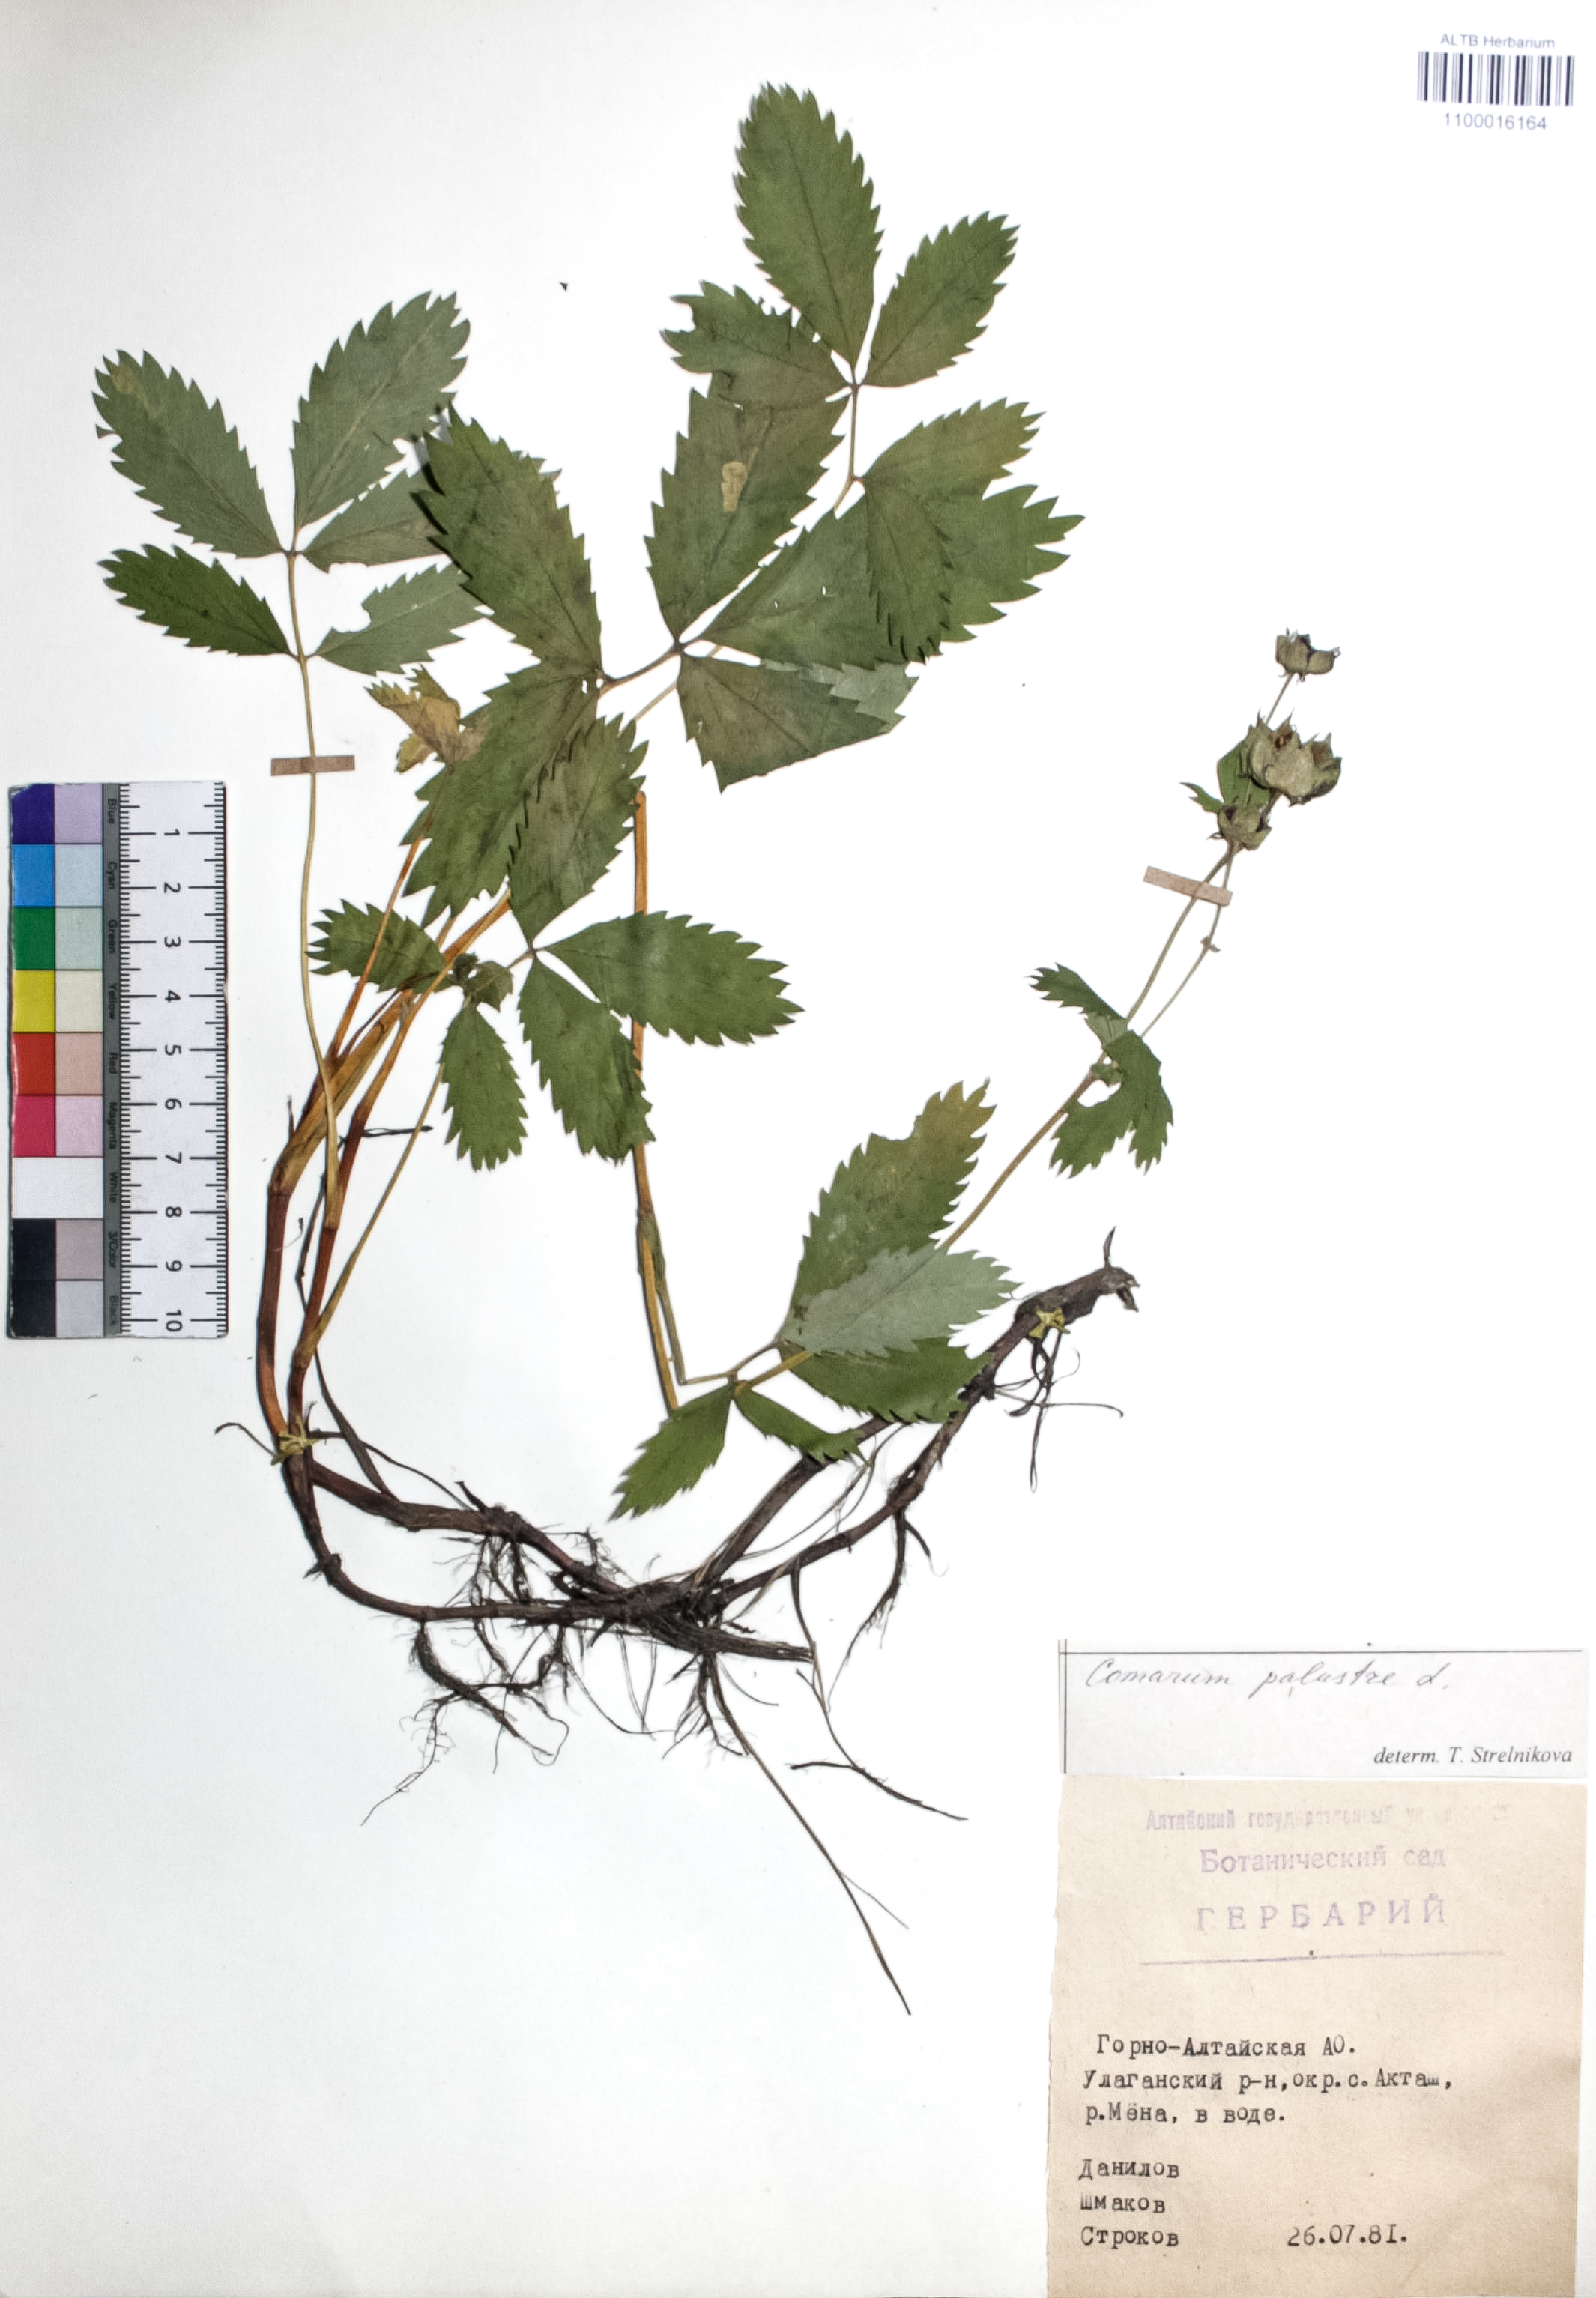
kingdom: Plantae
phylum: Tracheophyta
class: Magnoliopsida
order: Rosales
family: Rosaceae
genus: Comarum
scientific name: Comarum palustre
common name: Marsh cinquefoil
